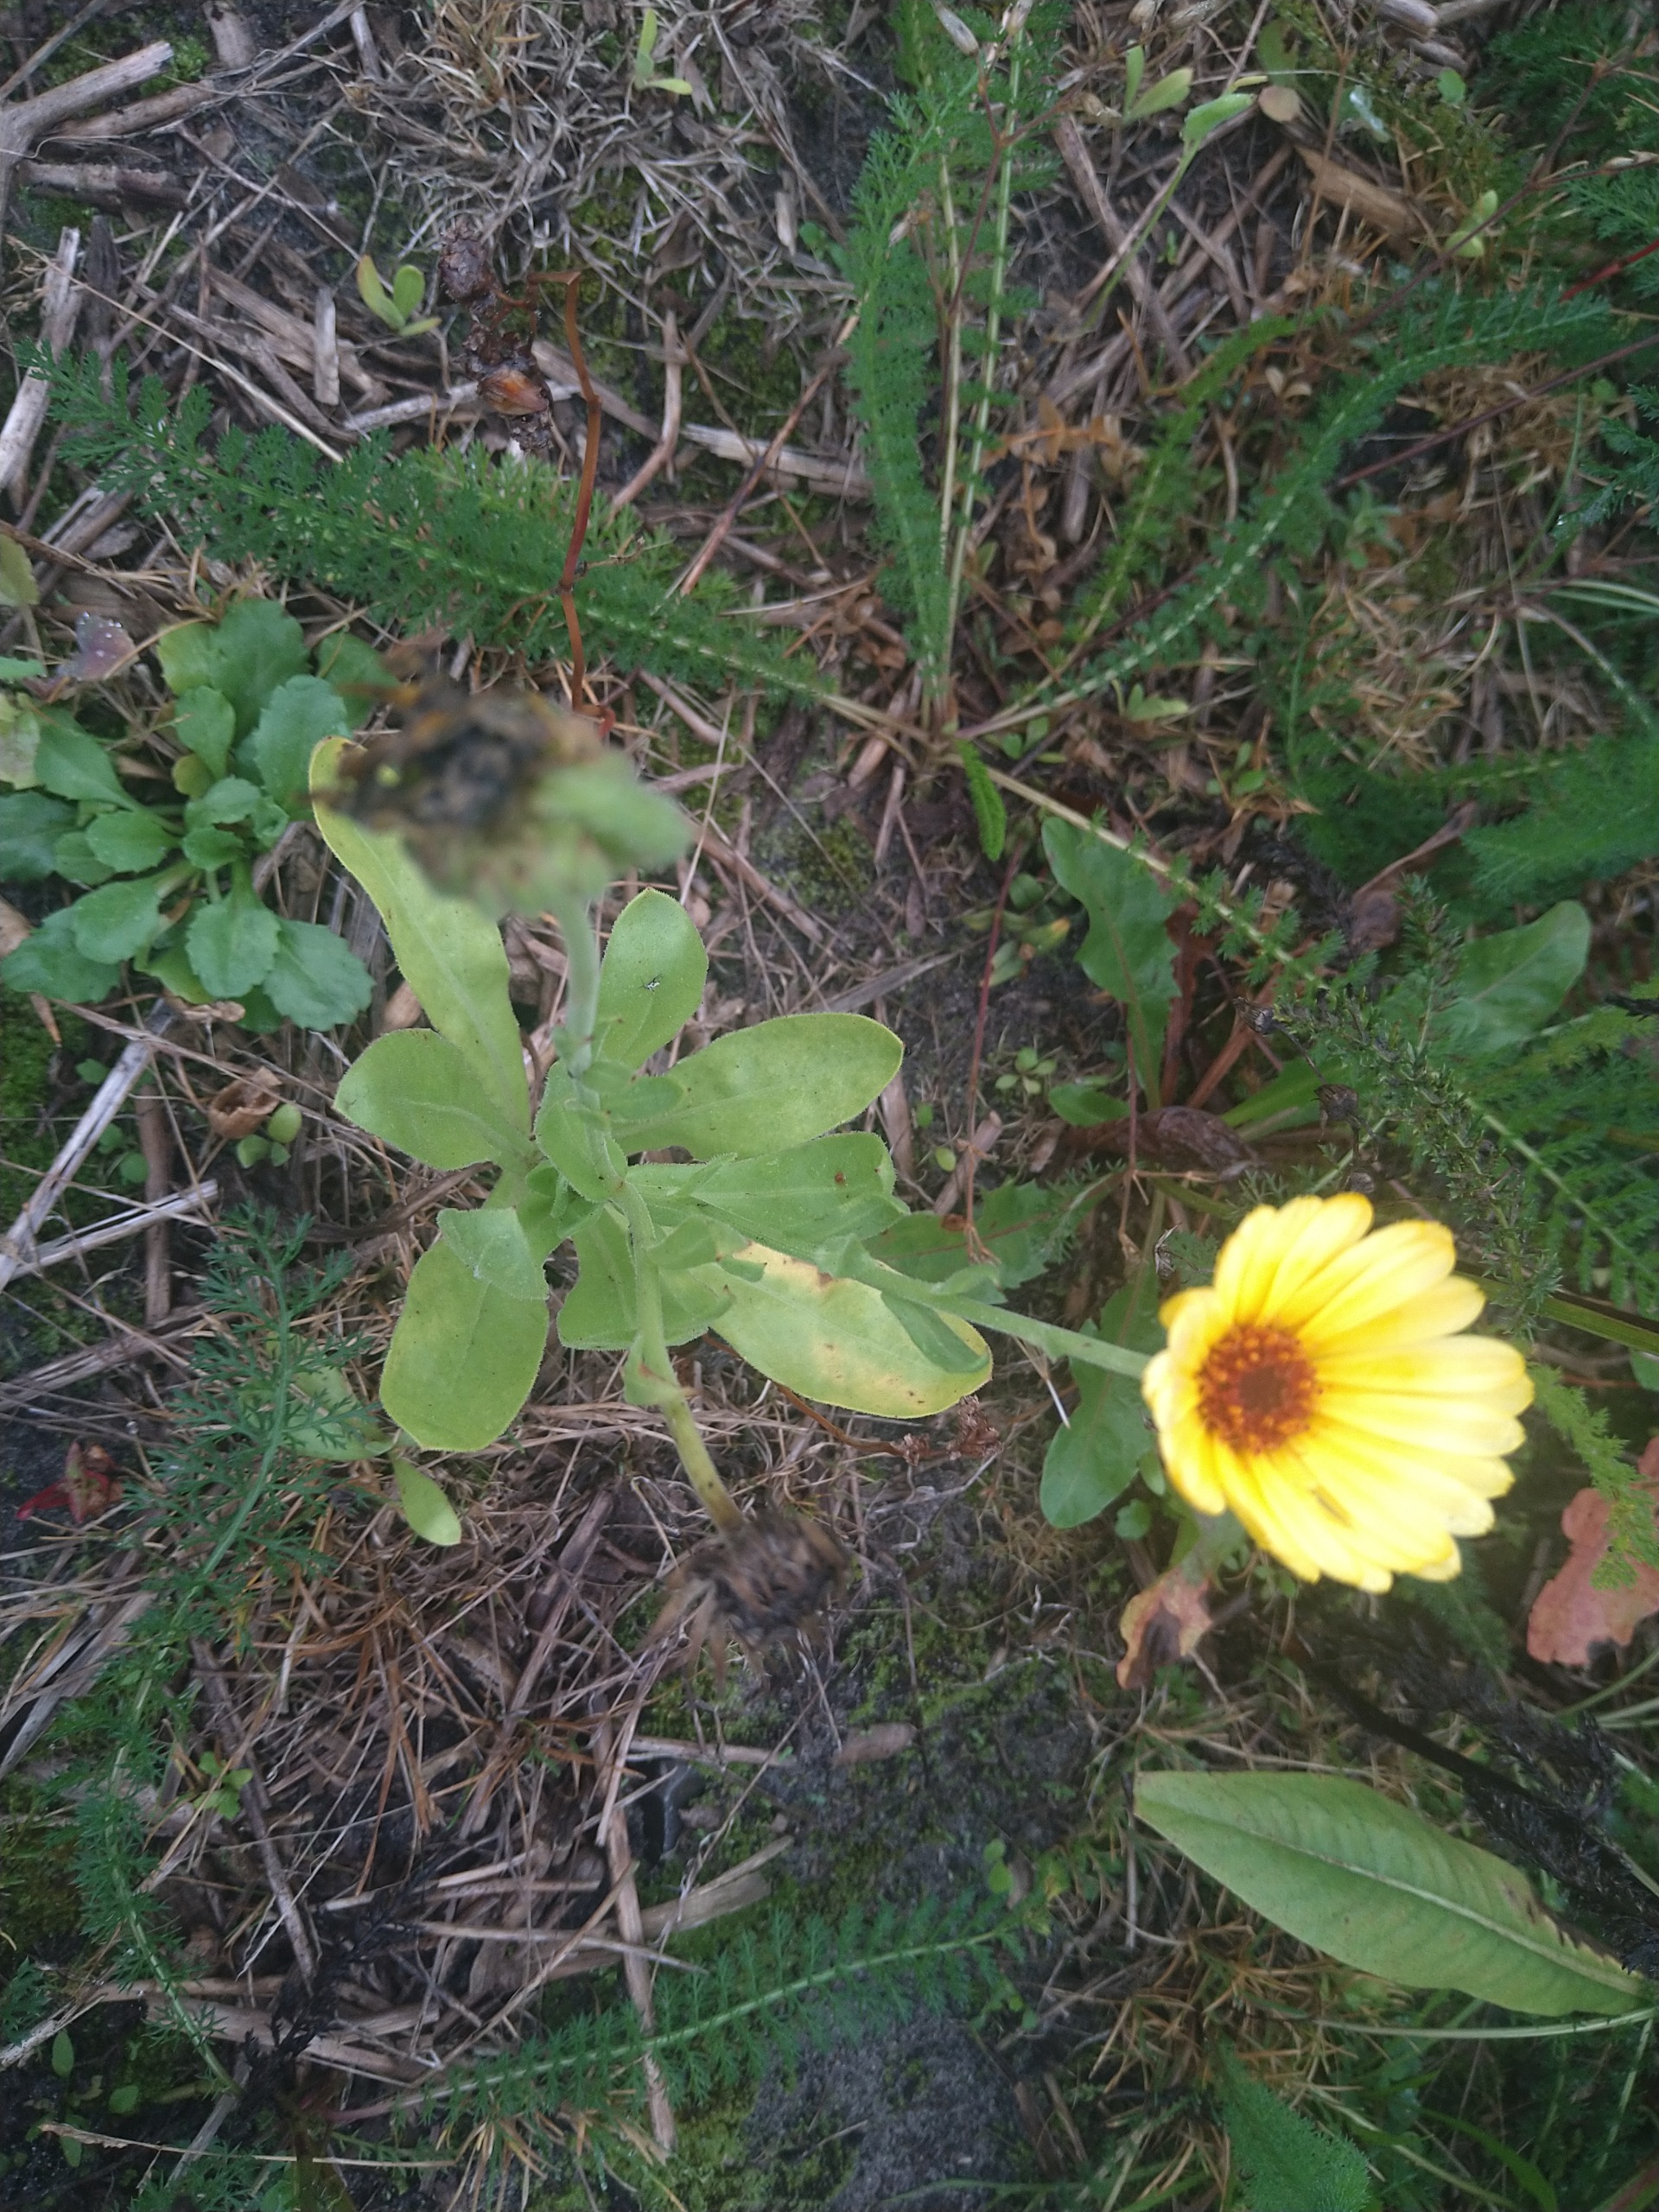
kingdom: Plantae
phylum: Tracheophyta
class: Magnoliopsida
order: Asterales
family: Asteraceae
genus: Calendula
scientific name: Calendula officinalis
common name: Have-morgenfrue
